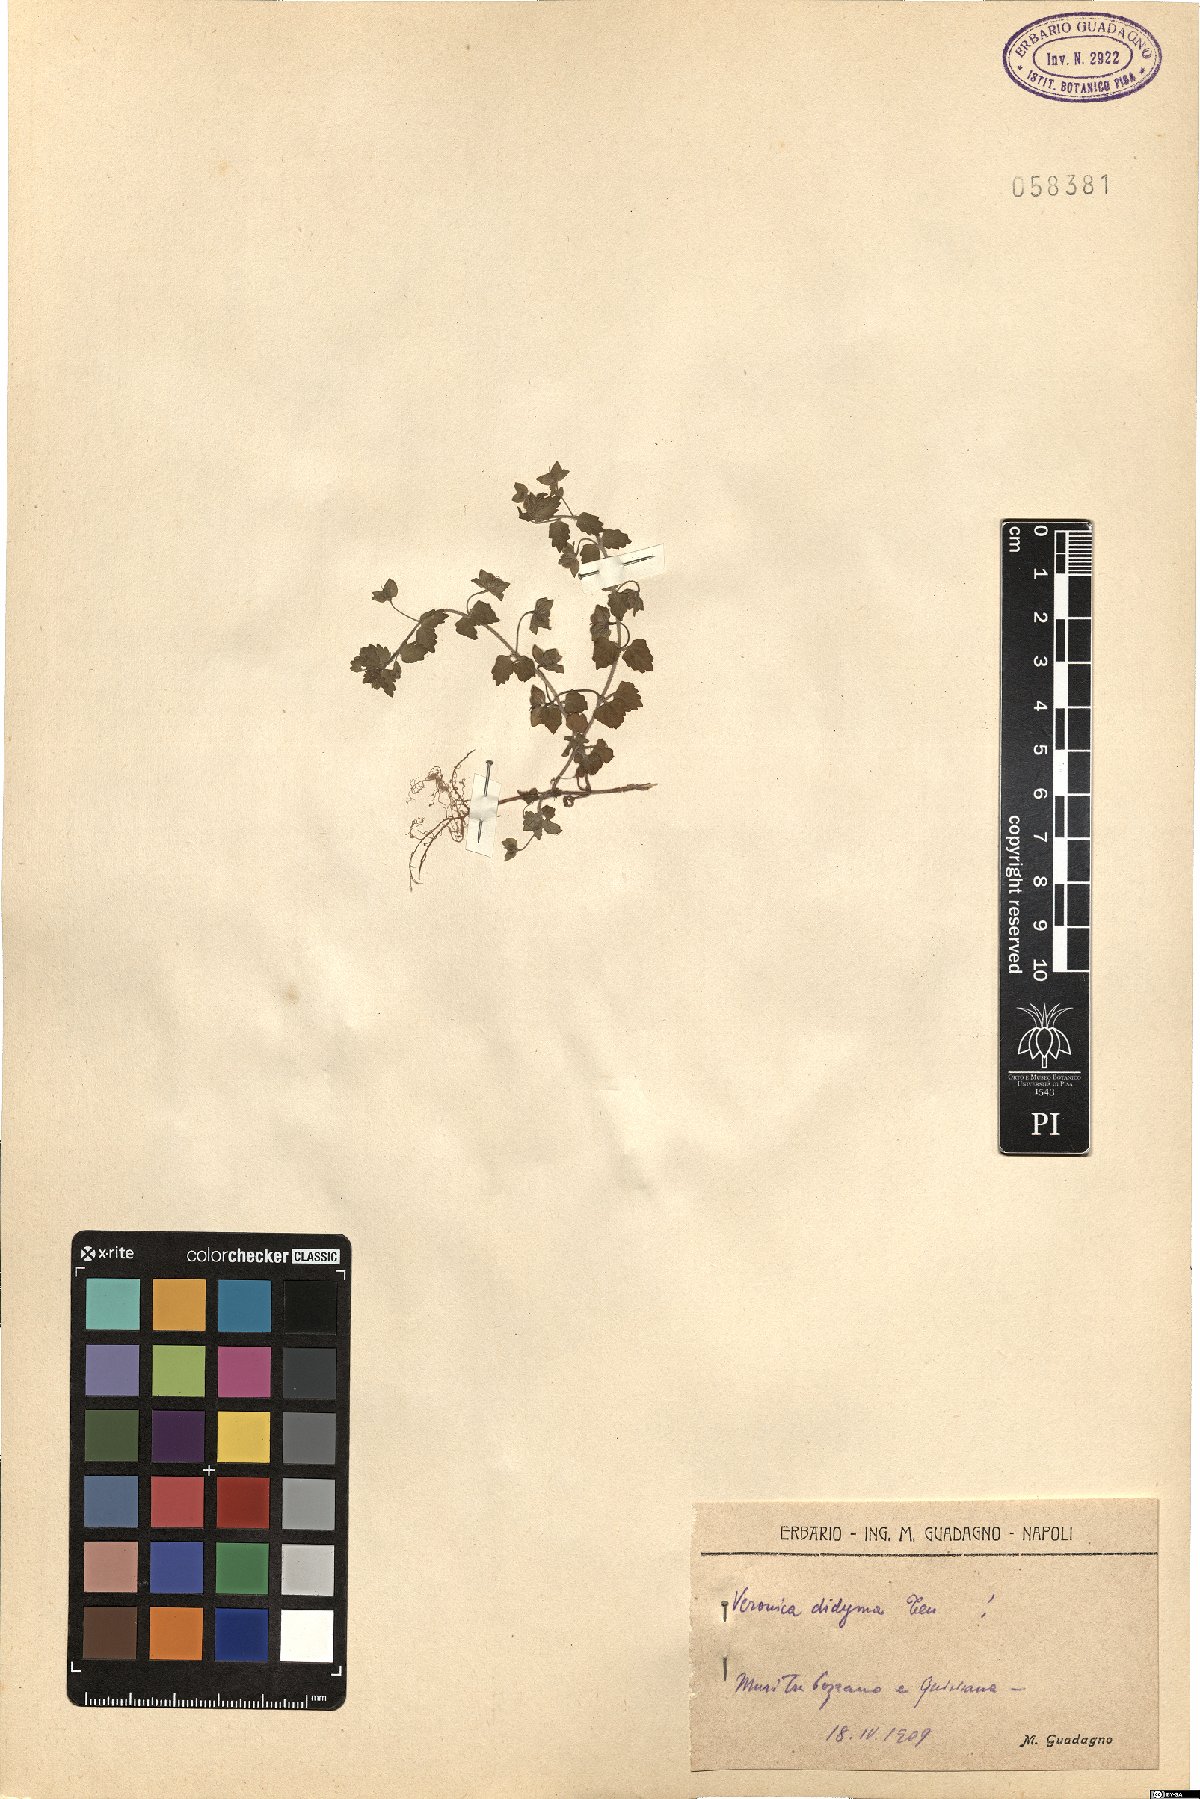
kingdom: Plantae
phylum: Tracheophyta
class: Magnoliopsida
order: Lamiales
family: Plantaginaceae
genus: Veronica
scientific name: Veronica polita
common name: Grey field-speedwell
